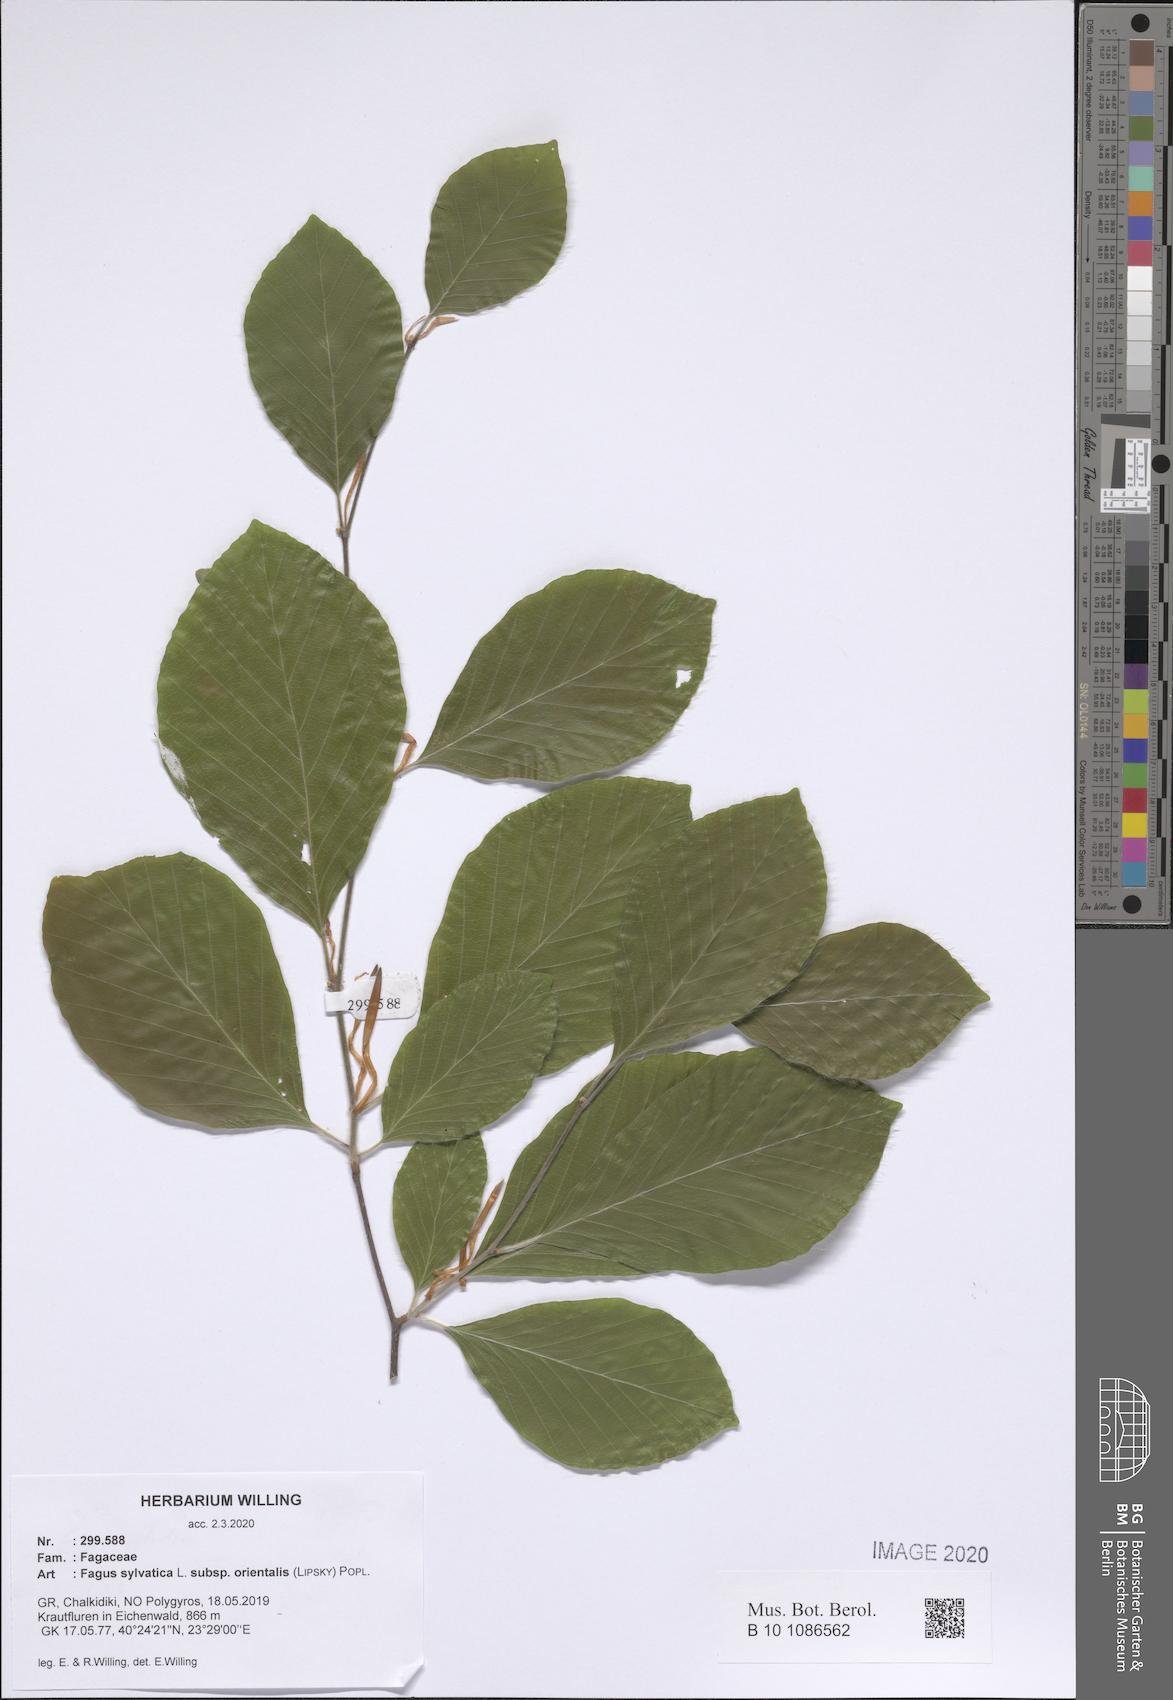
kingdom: Plantae
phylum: Tracheophyta
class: Magnoliopsida
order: Fagales
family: Fagaceae
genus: Fagus
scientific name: Fagus orientalis
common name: Oriental beech
